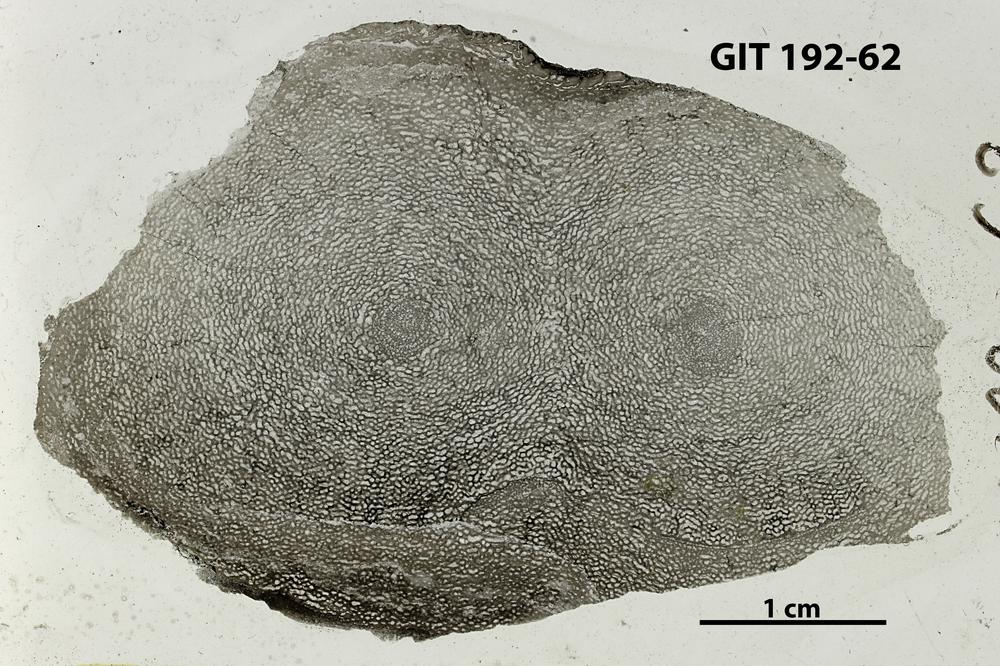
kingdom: Animalia
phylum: Porifera
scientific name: Porifera
